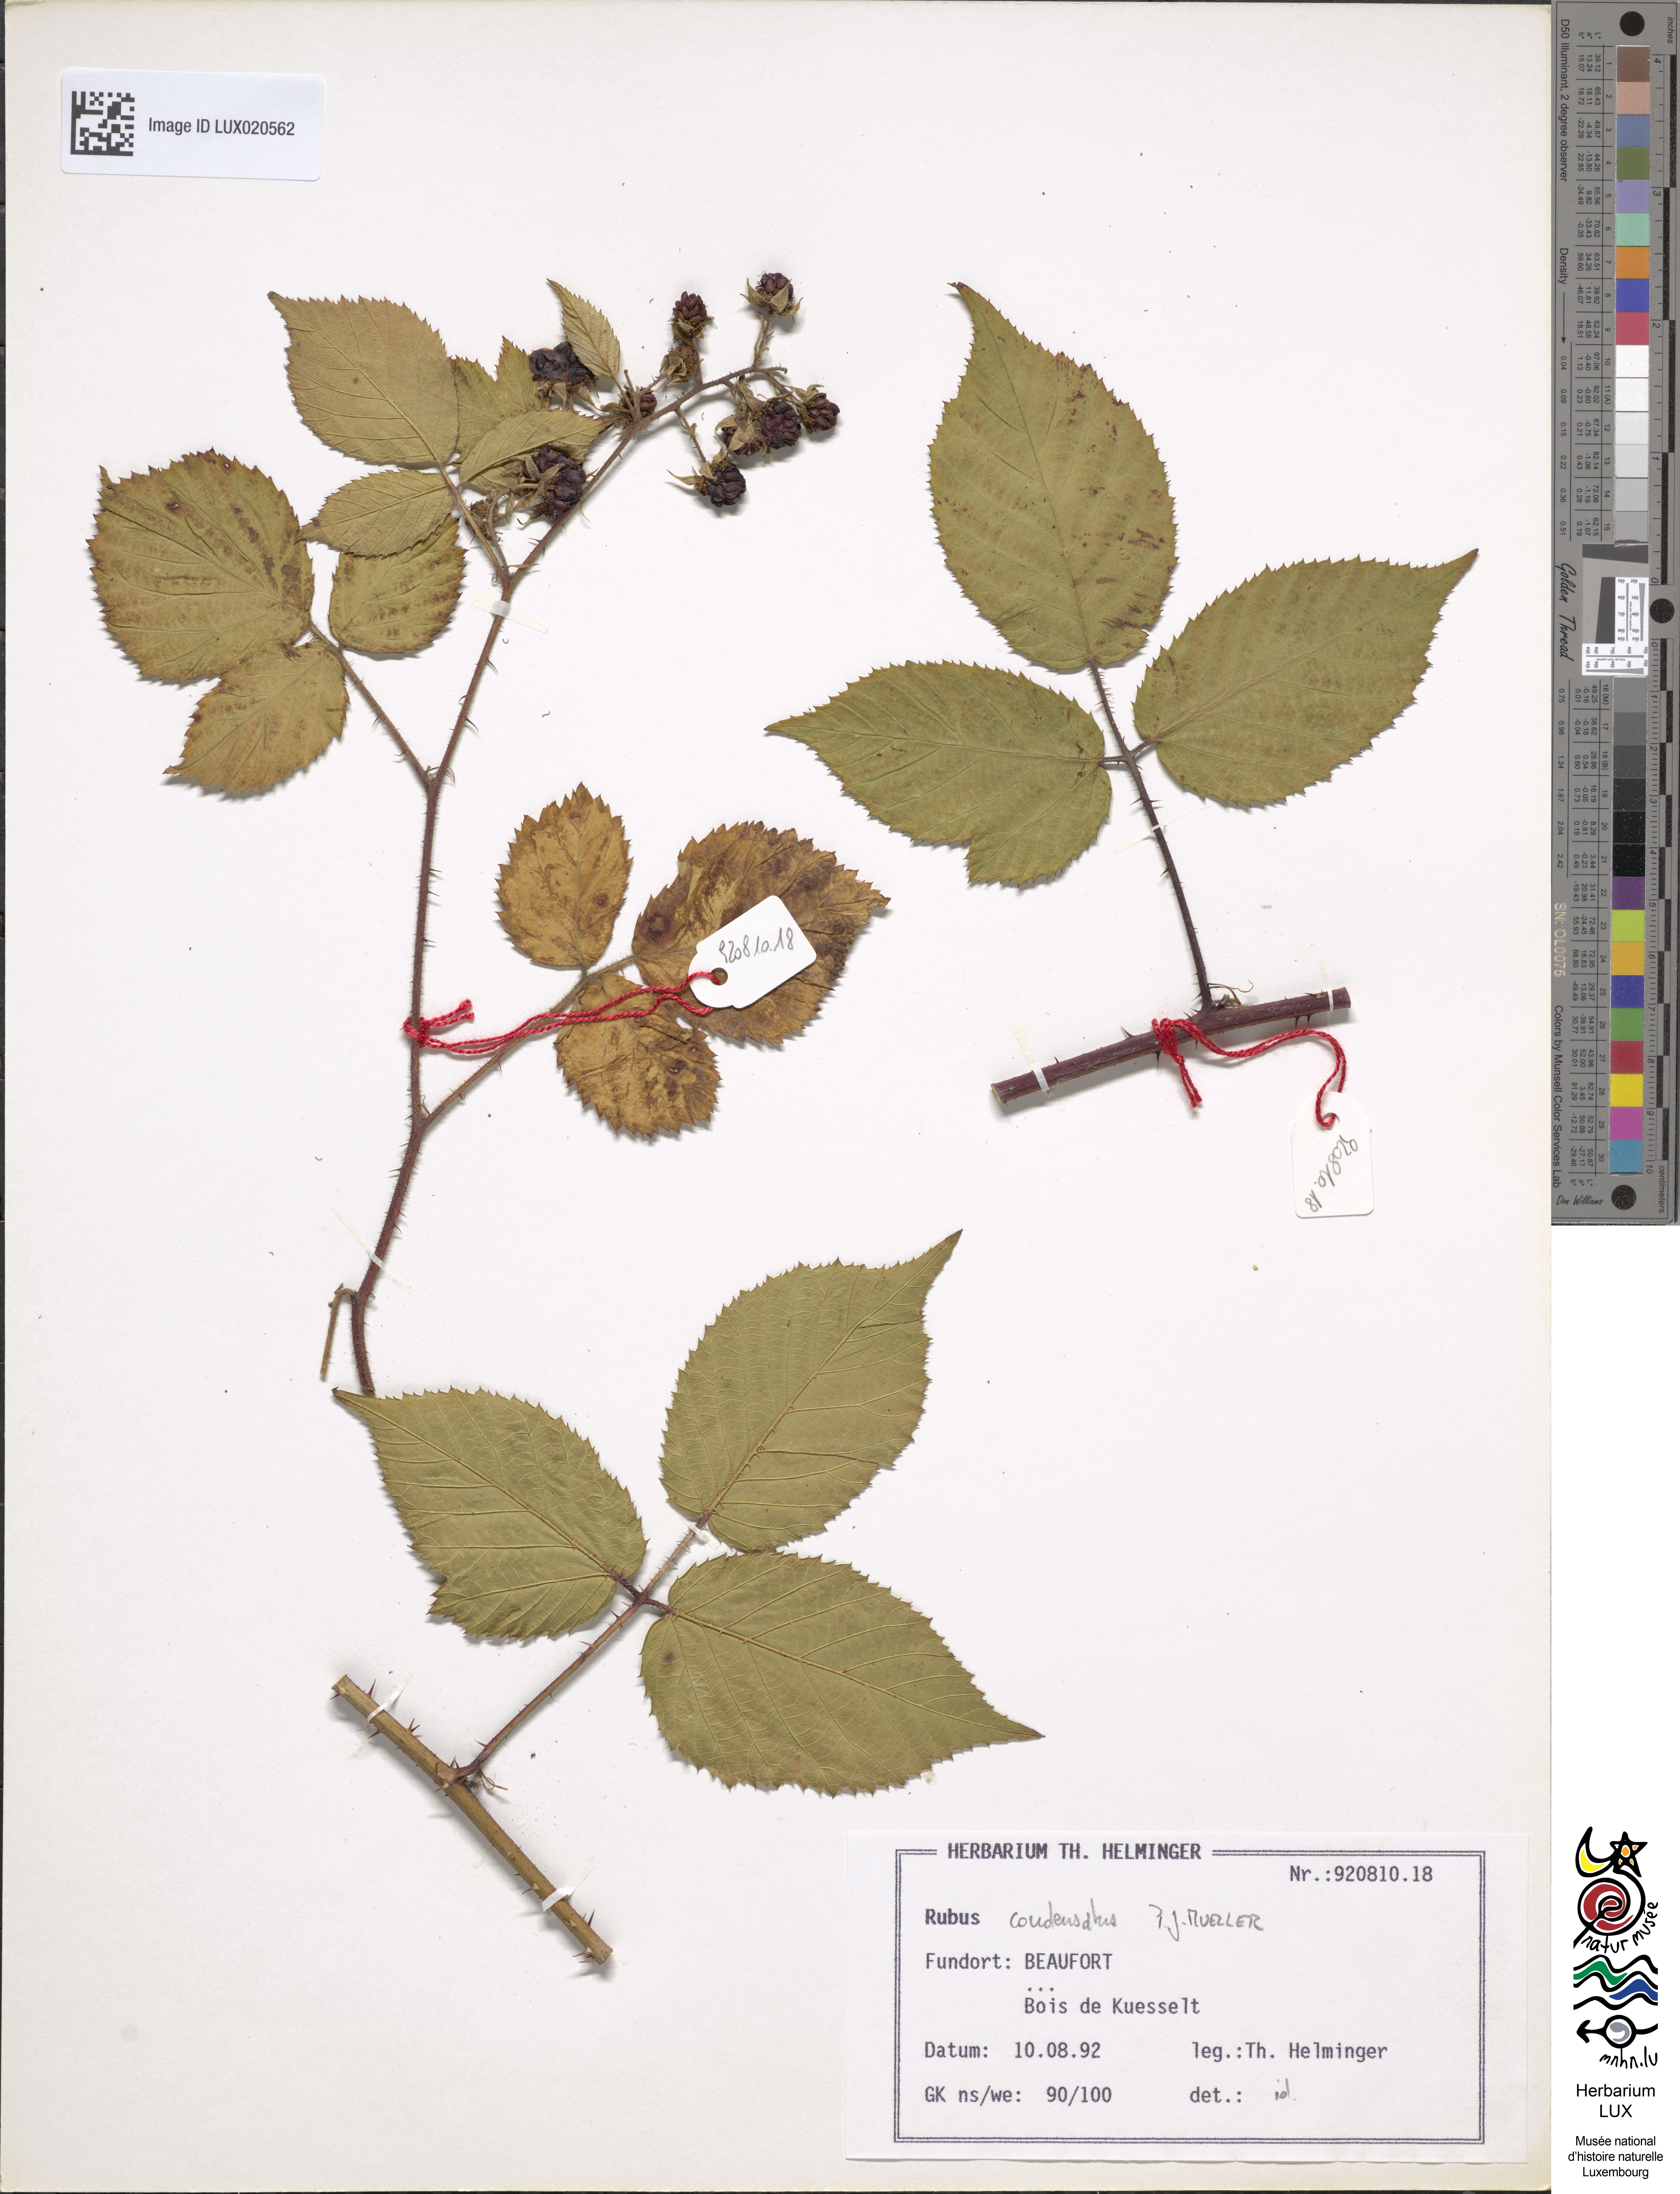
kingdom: Plantae
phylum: Tracheophyta
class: Magnoliopsida
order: Rosales
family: Rosaceae
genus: Rubus
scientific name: Rubus condensatus
